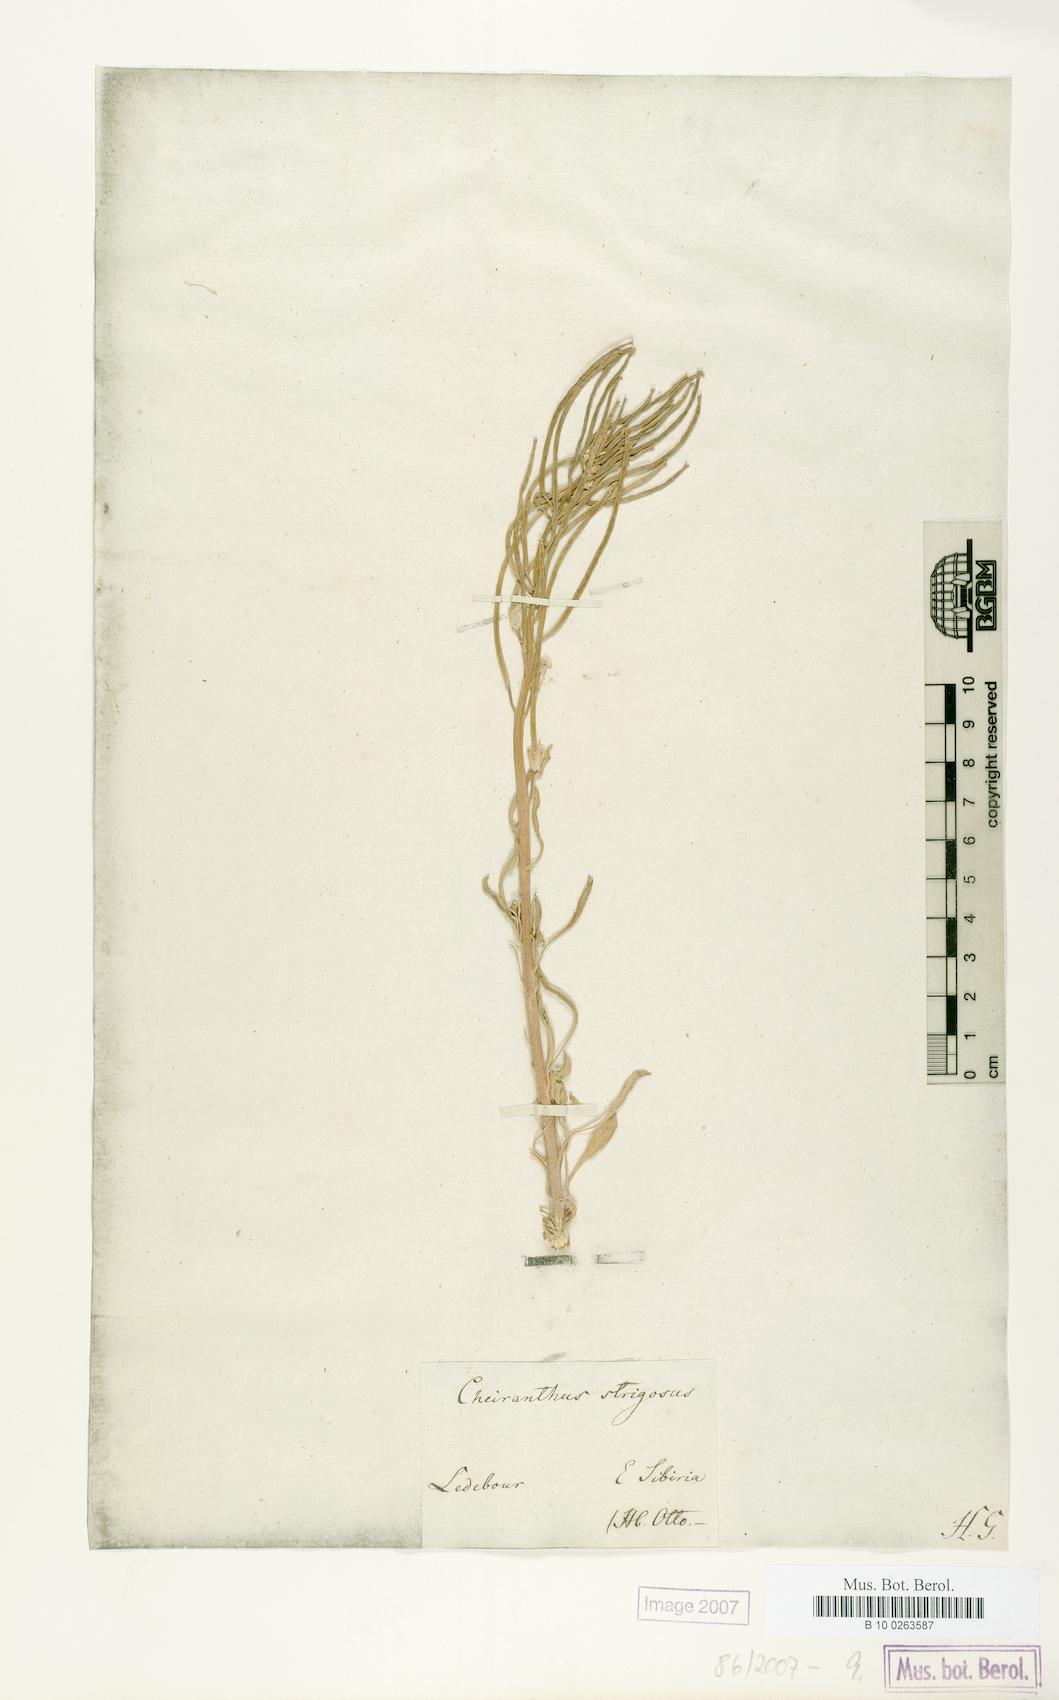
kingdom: Plantae
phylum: Tracheophyta
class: Magnoliopsida
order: Brassicales
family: Brassicaceae
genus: Erysimum
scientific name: Erysimum redowskii
